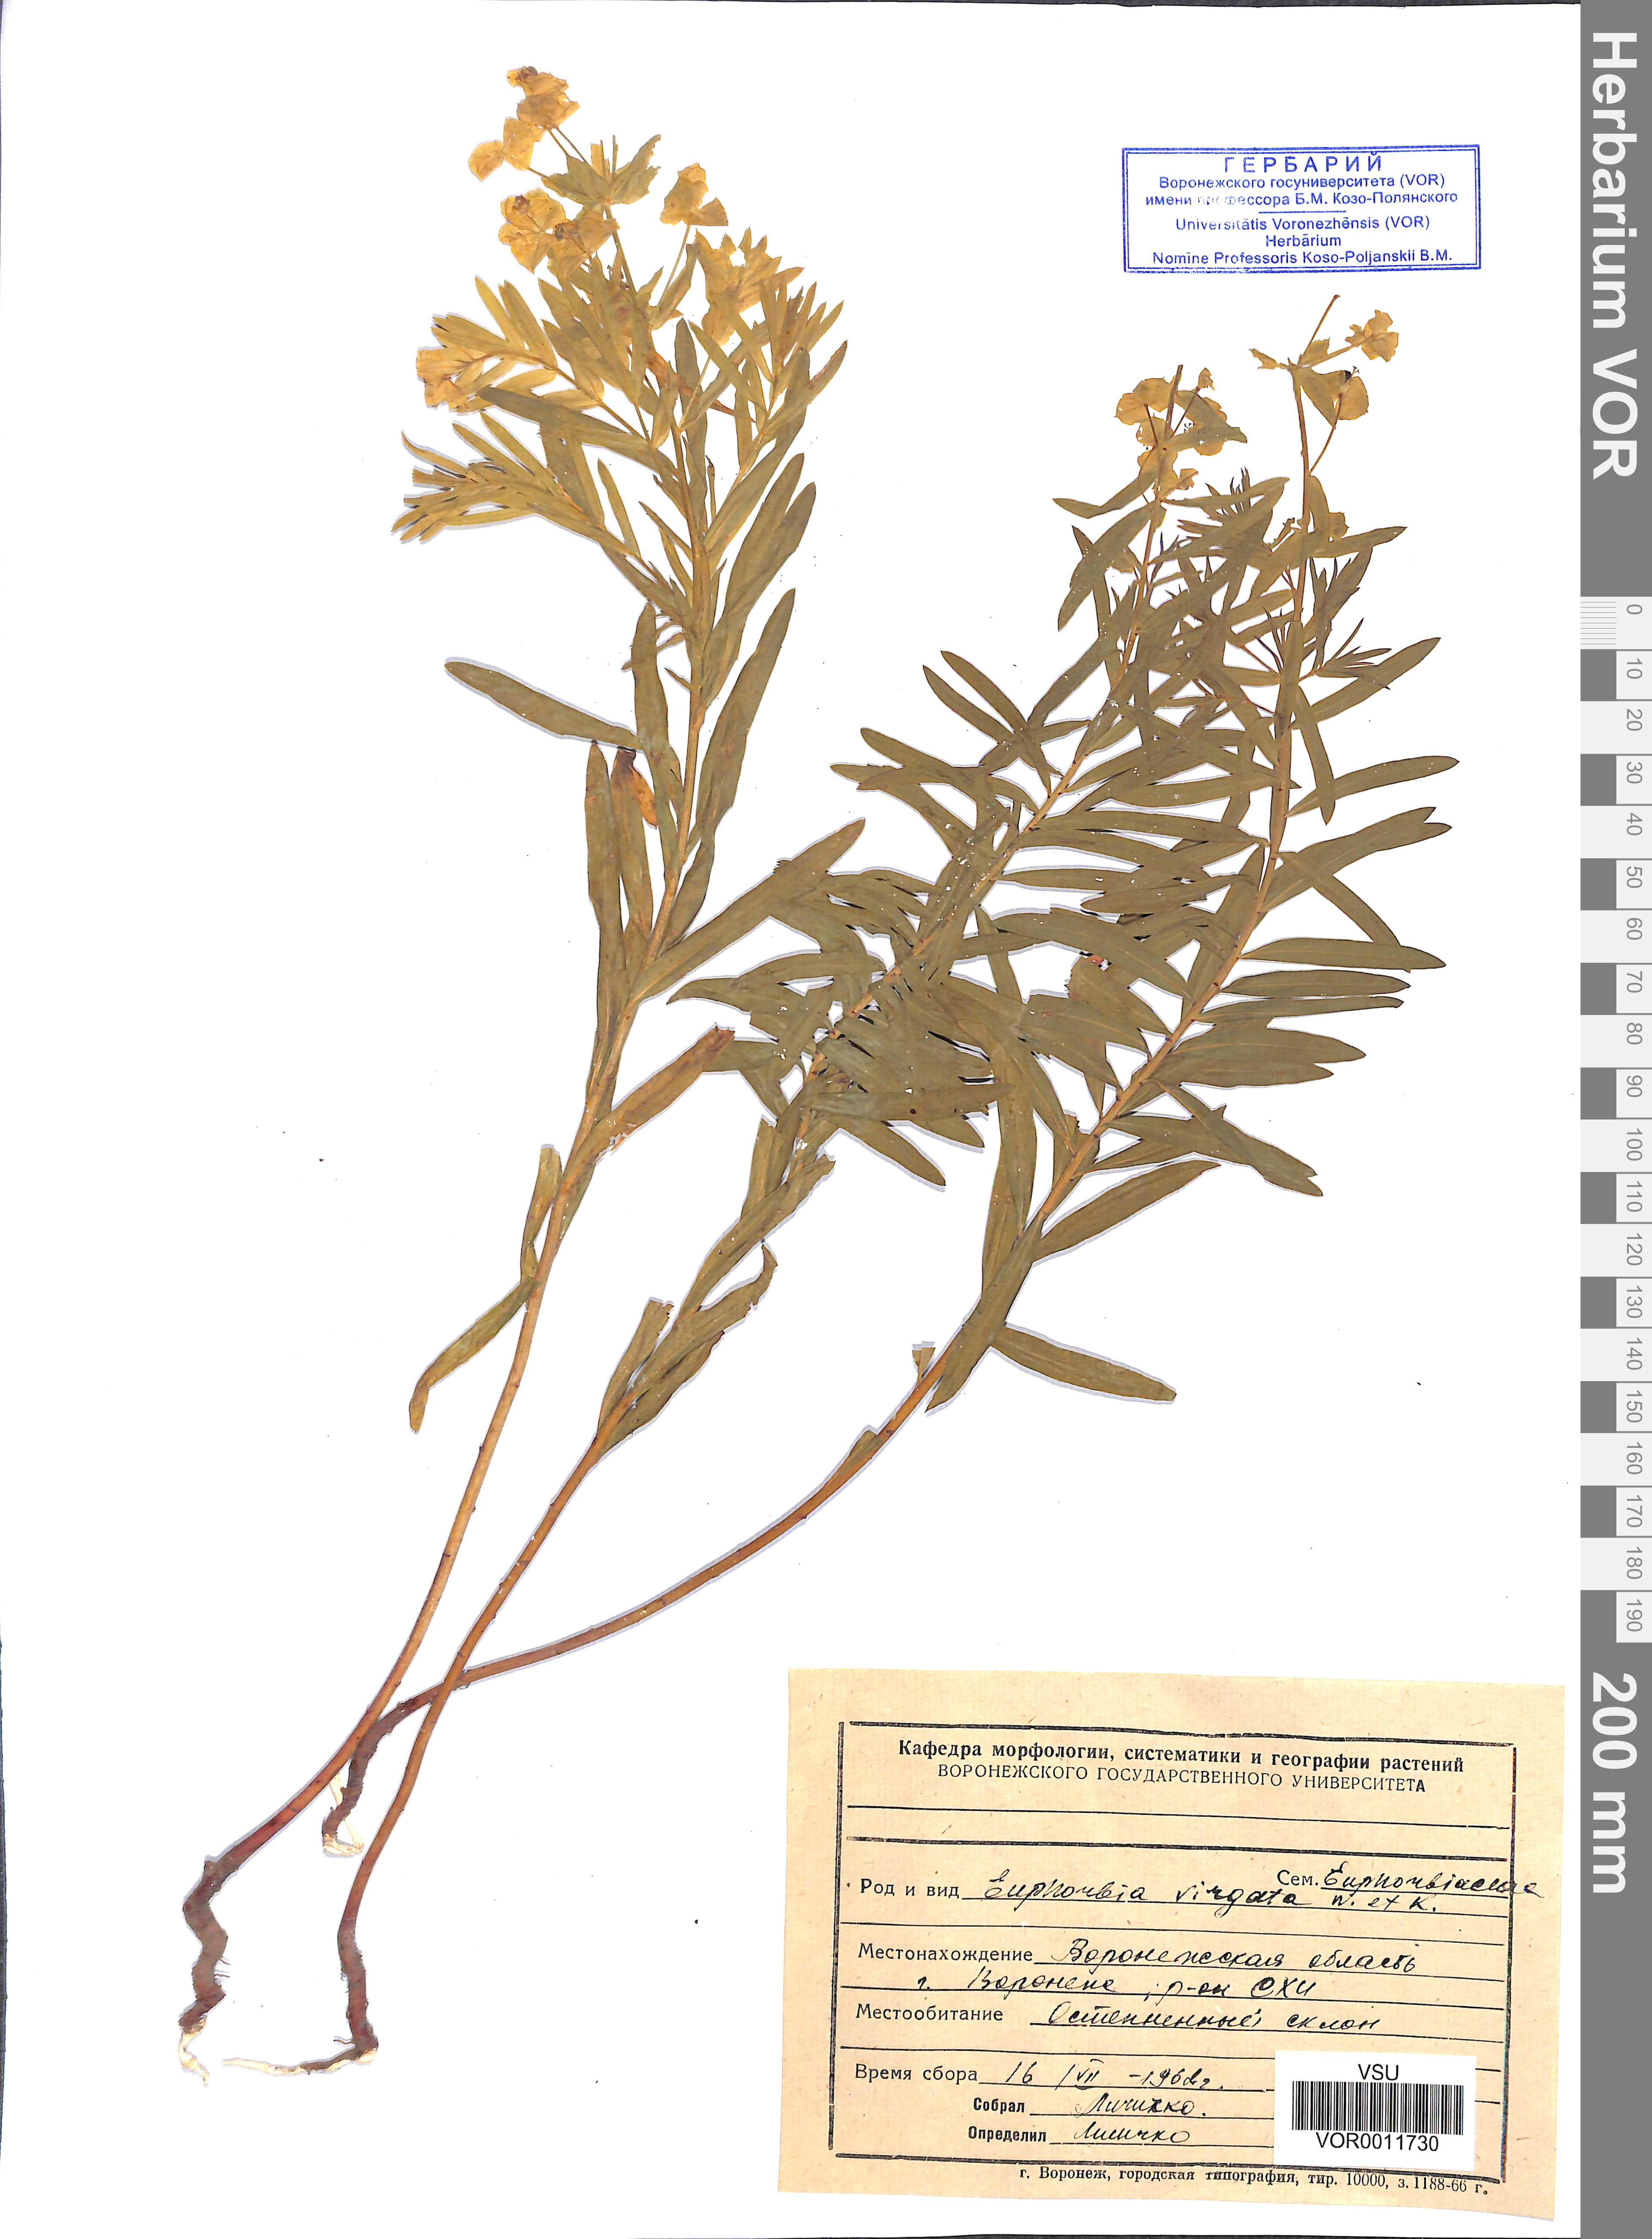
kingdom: Plantae
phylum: Tracheophyta
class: Magnoliopsida
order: Malpighiales
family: Euphorbiaceae
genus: Euphorbia
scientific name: Euphorbia virgata
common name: Leafy spurge
